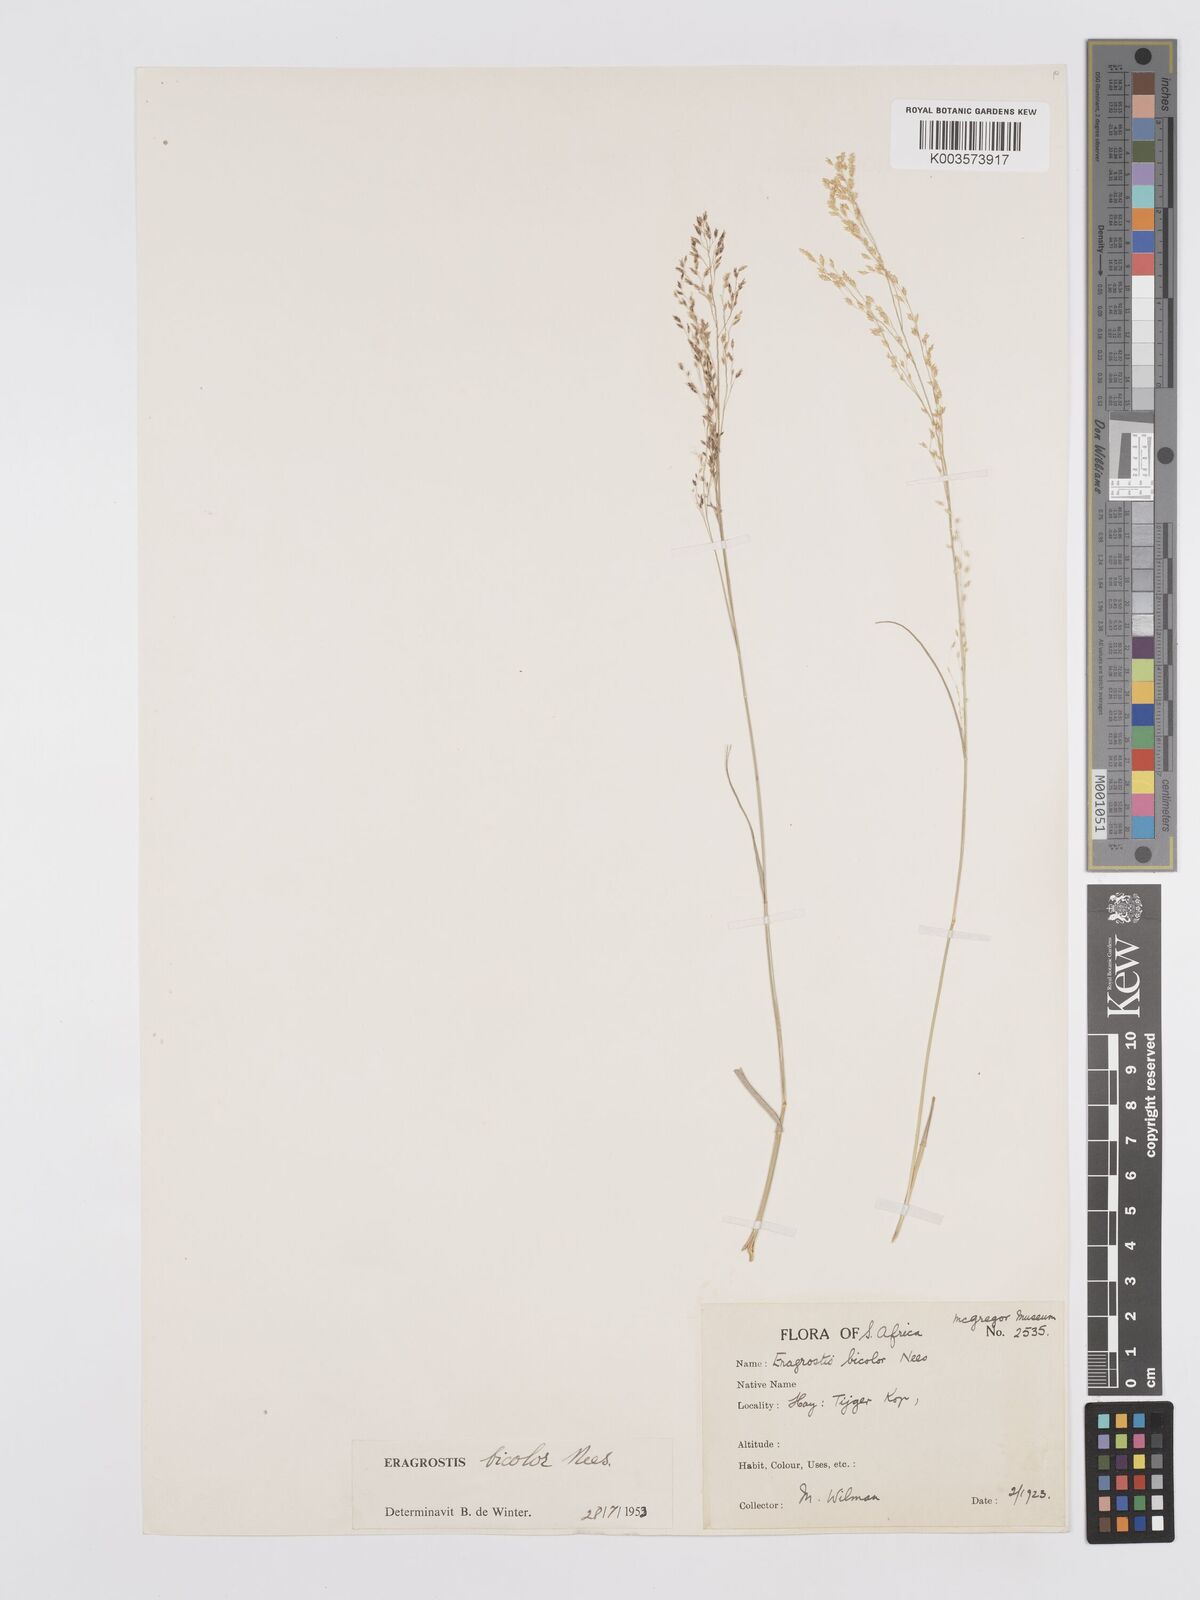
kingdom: Plantae
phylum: Tracheophyta
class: Liliopsida
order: Poales
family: Poaceae
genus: Eragrostis
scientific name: Eragrostis
